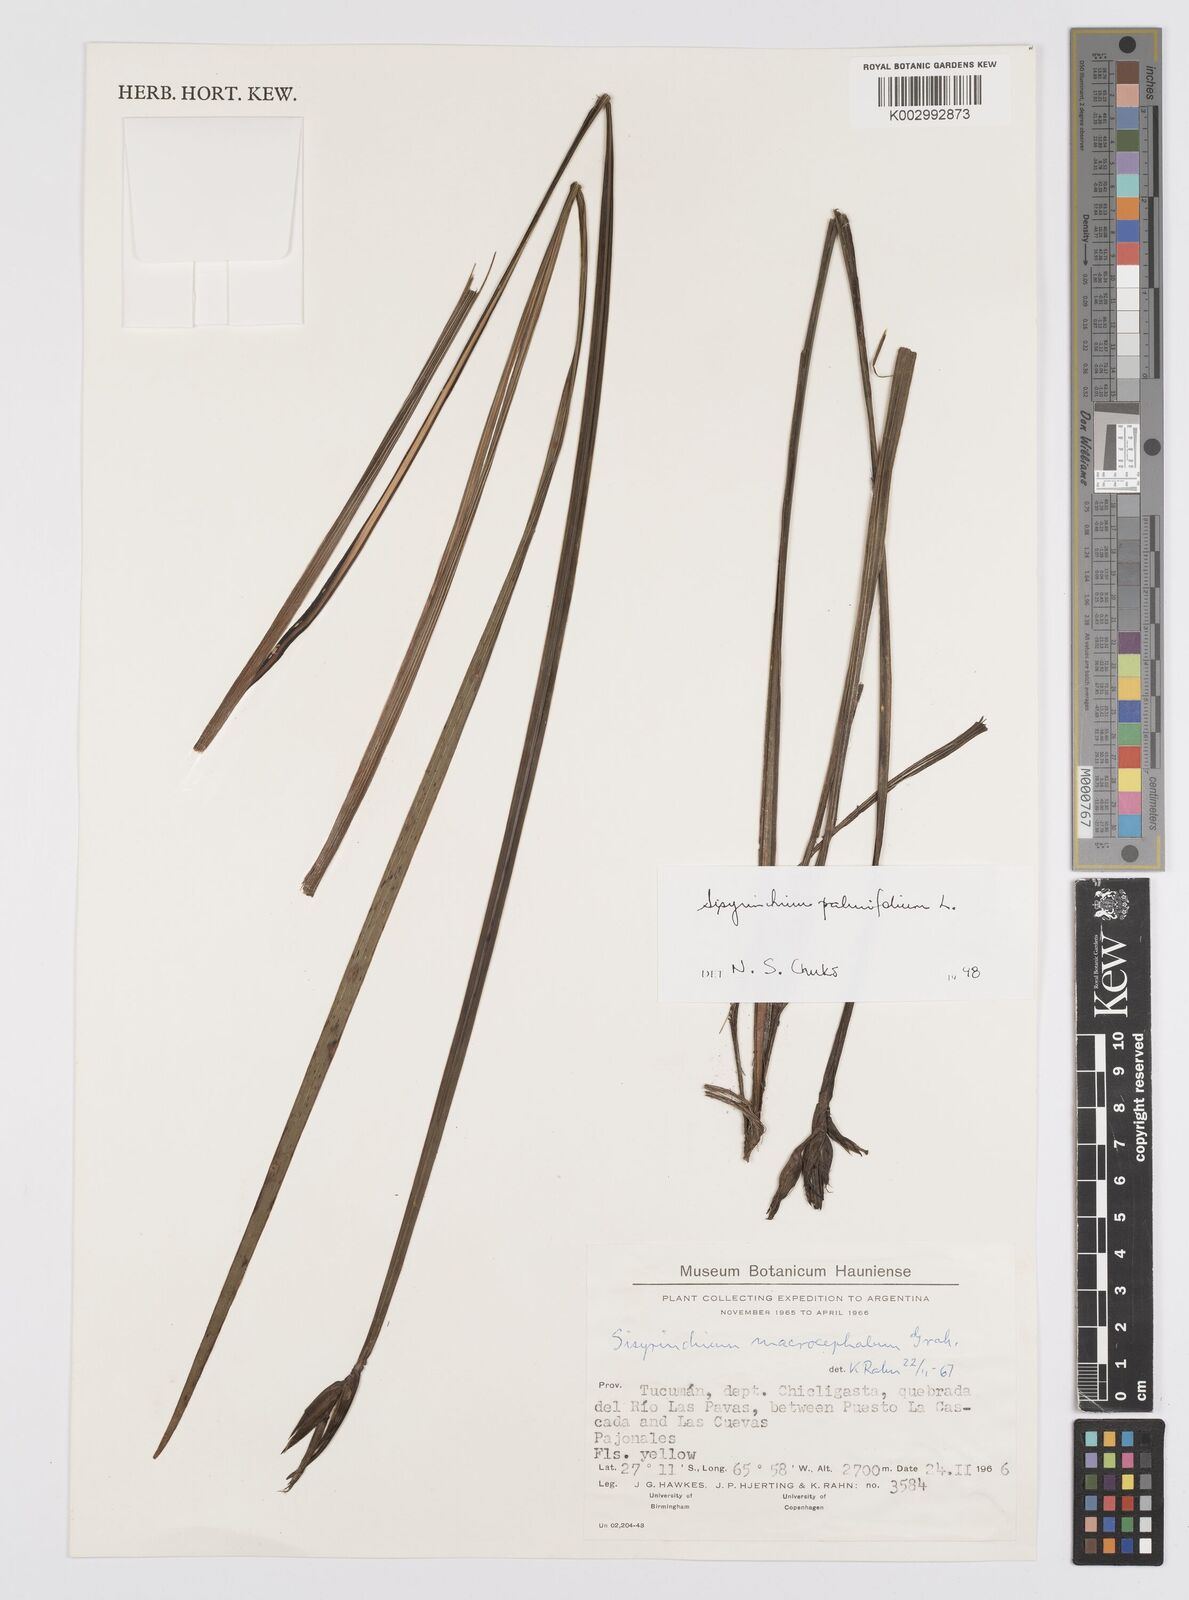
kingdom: Plantae
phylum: Tracheophyta
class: Liliopsida
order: Asparagales
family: Iridaceae
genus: Sisyrinchium
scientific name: Sisyrinchium palmifolium
